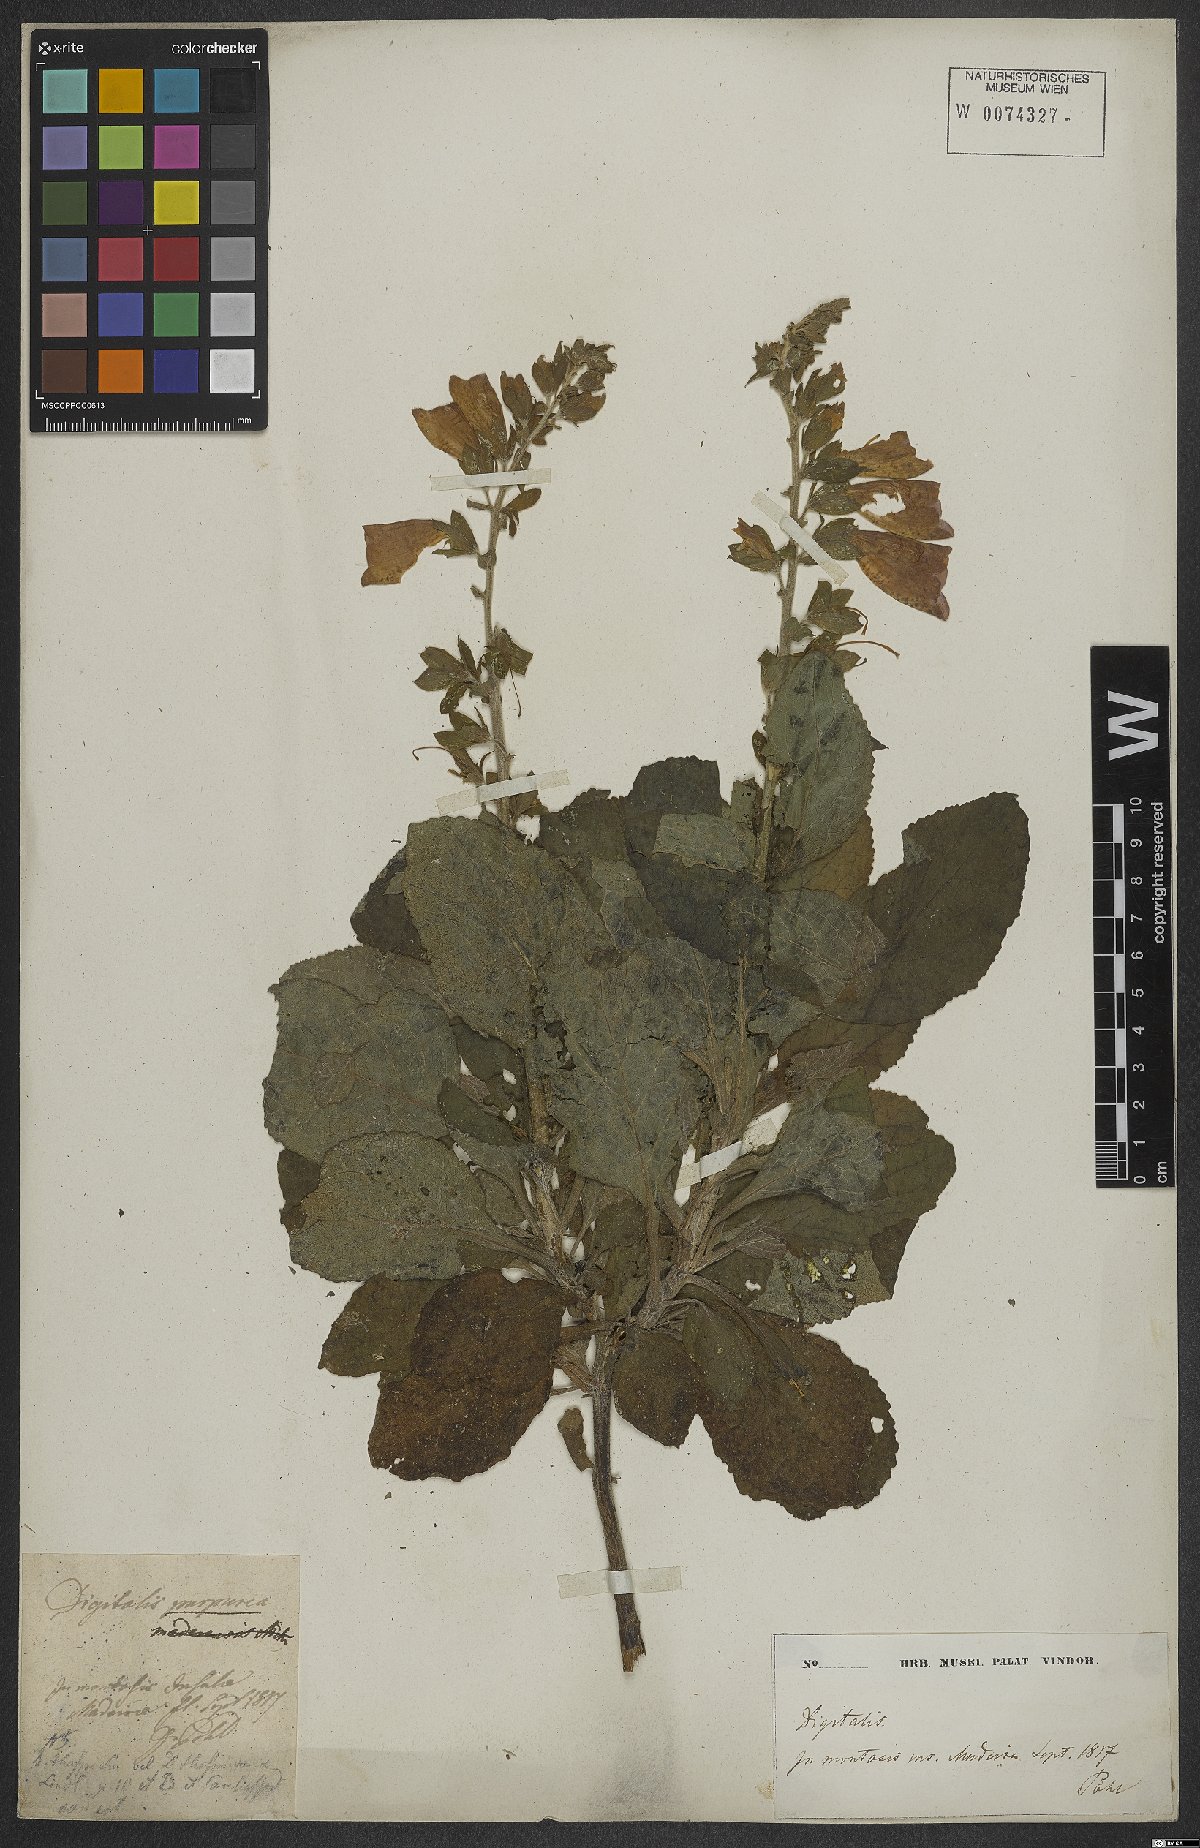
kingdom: Plantae
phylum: Tracheophyta
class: Magnoliopsida
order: Lamiales
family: Plantaginaceae
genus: Digitalis
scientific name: Digitalis purpurea
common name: Foxglove
